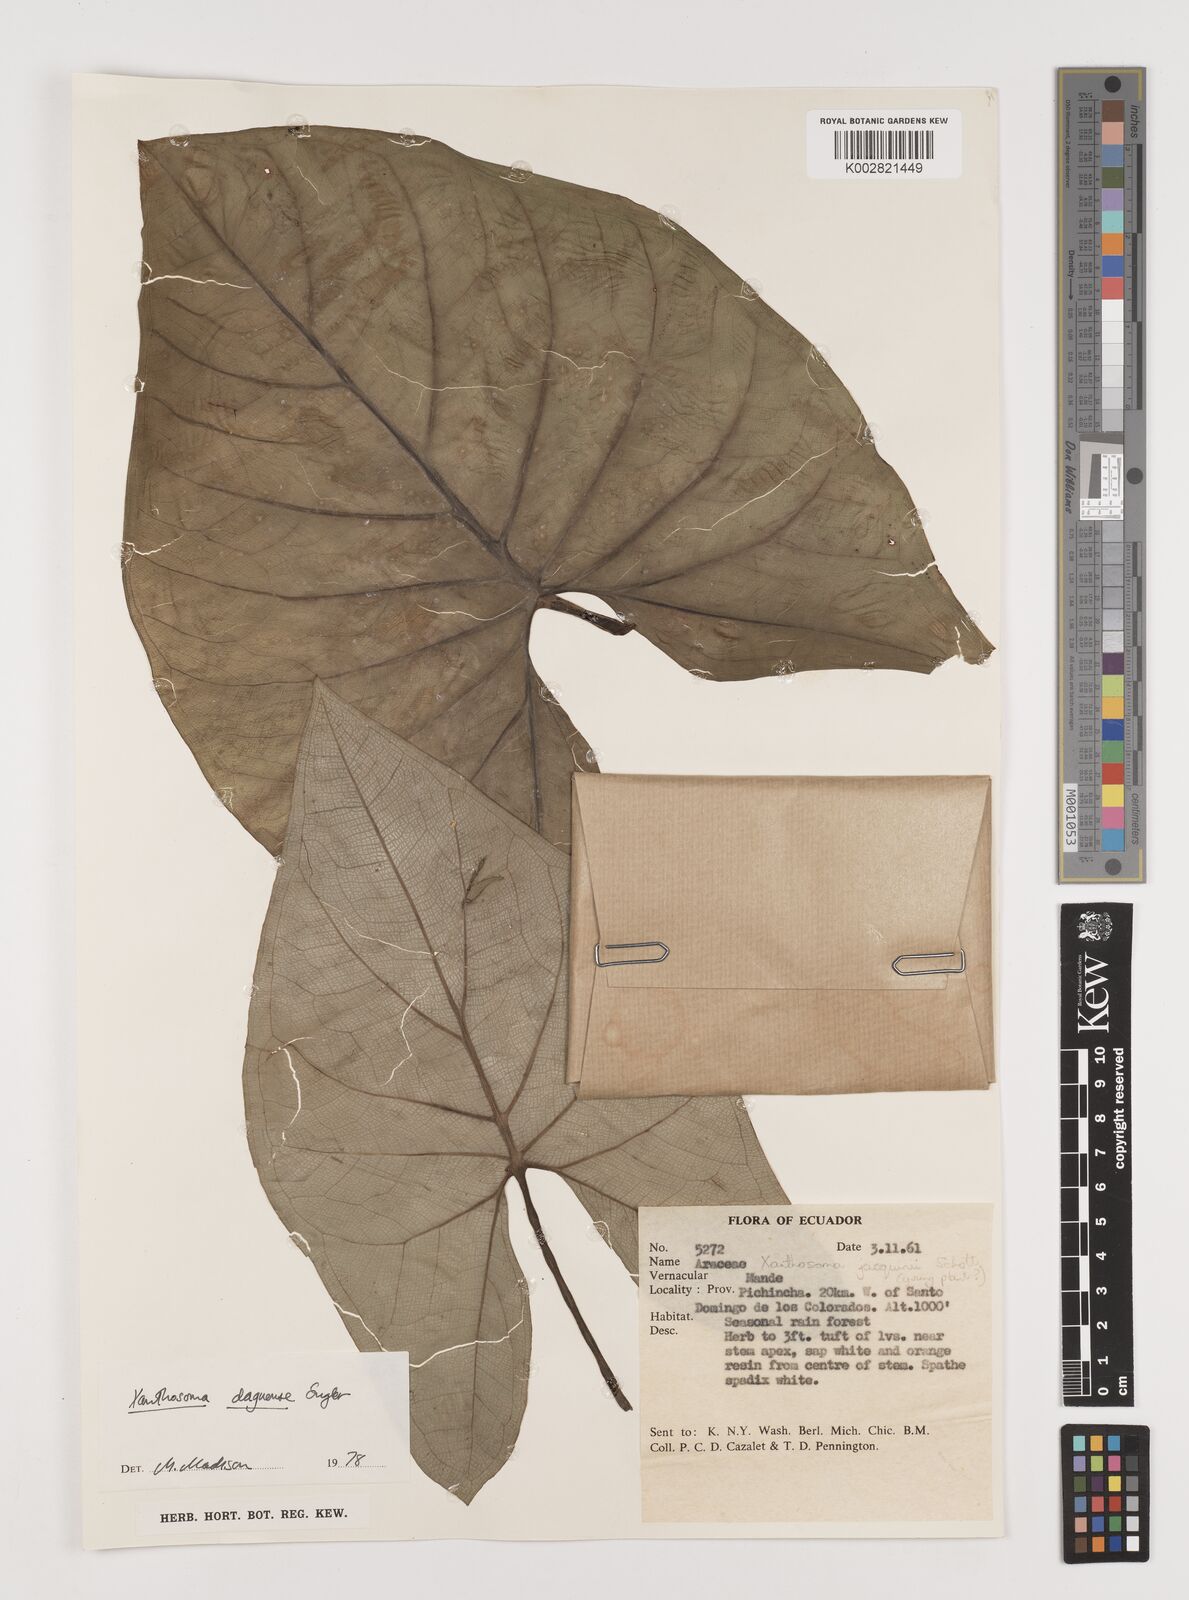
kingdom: Plantae
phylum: Tracheophyta
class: Liliopsida
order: Alismatales
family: Araceae
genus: Xanthosoma
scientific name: Xanthosoma daguense
